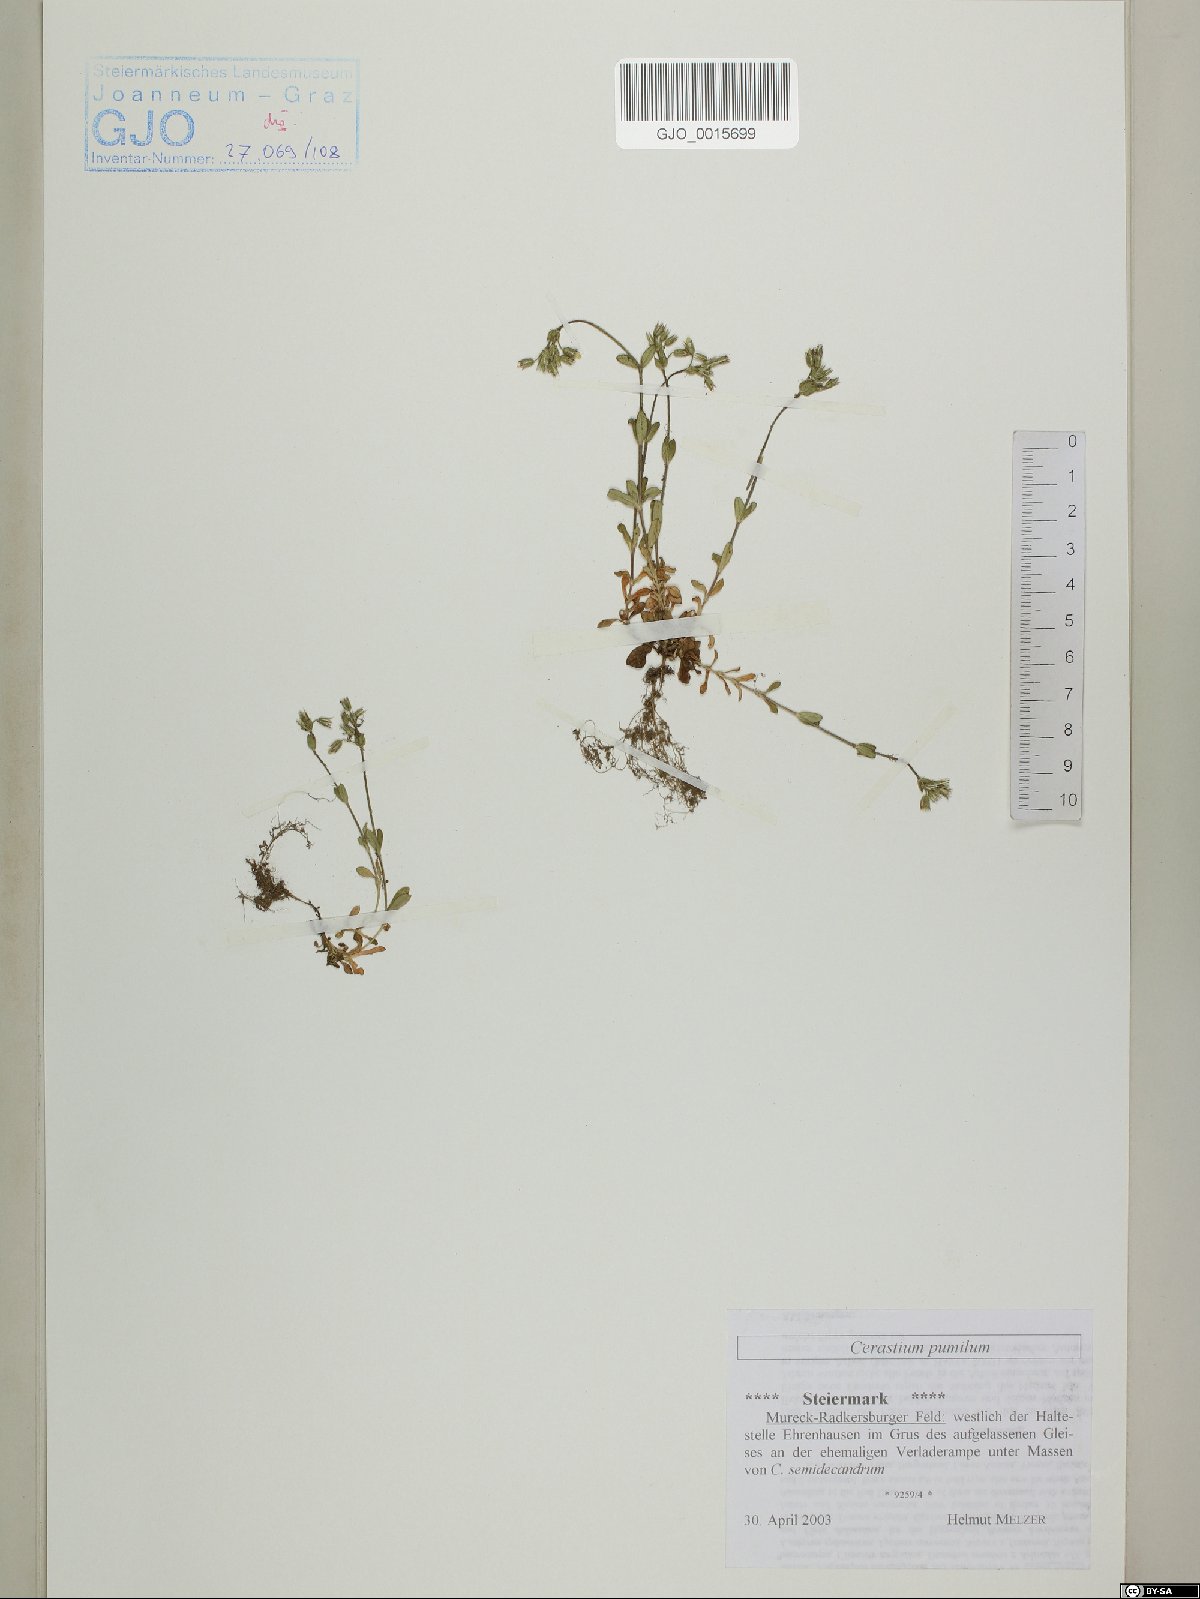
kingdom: Plantae
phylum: Tracheophyta
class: Magnoliopsida
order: Caryophyllales
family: Caryophyllaceae
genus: Cerastium
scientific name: Cerastium pumilum
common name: Dwarf mouse-ear
